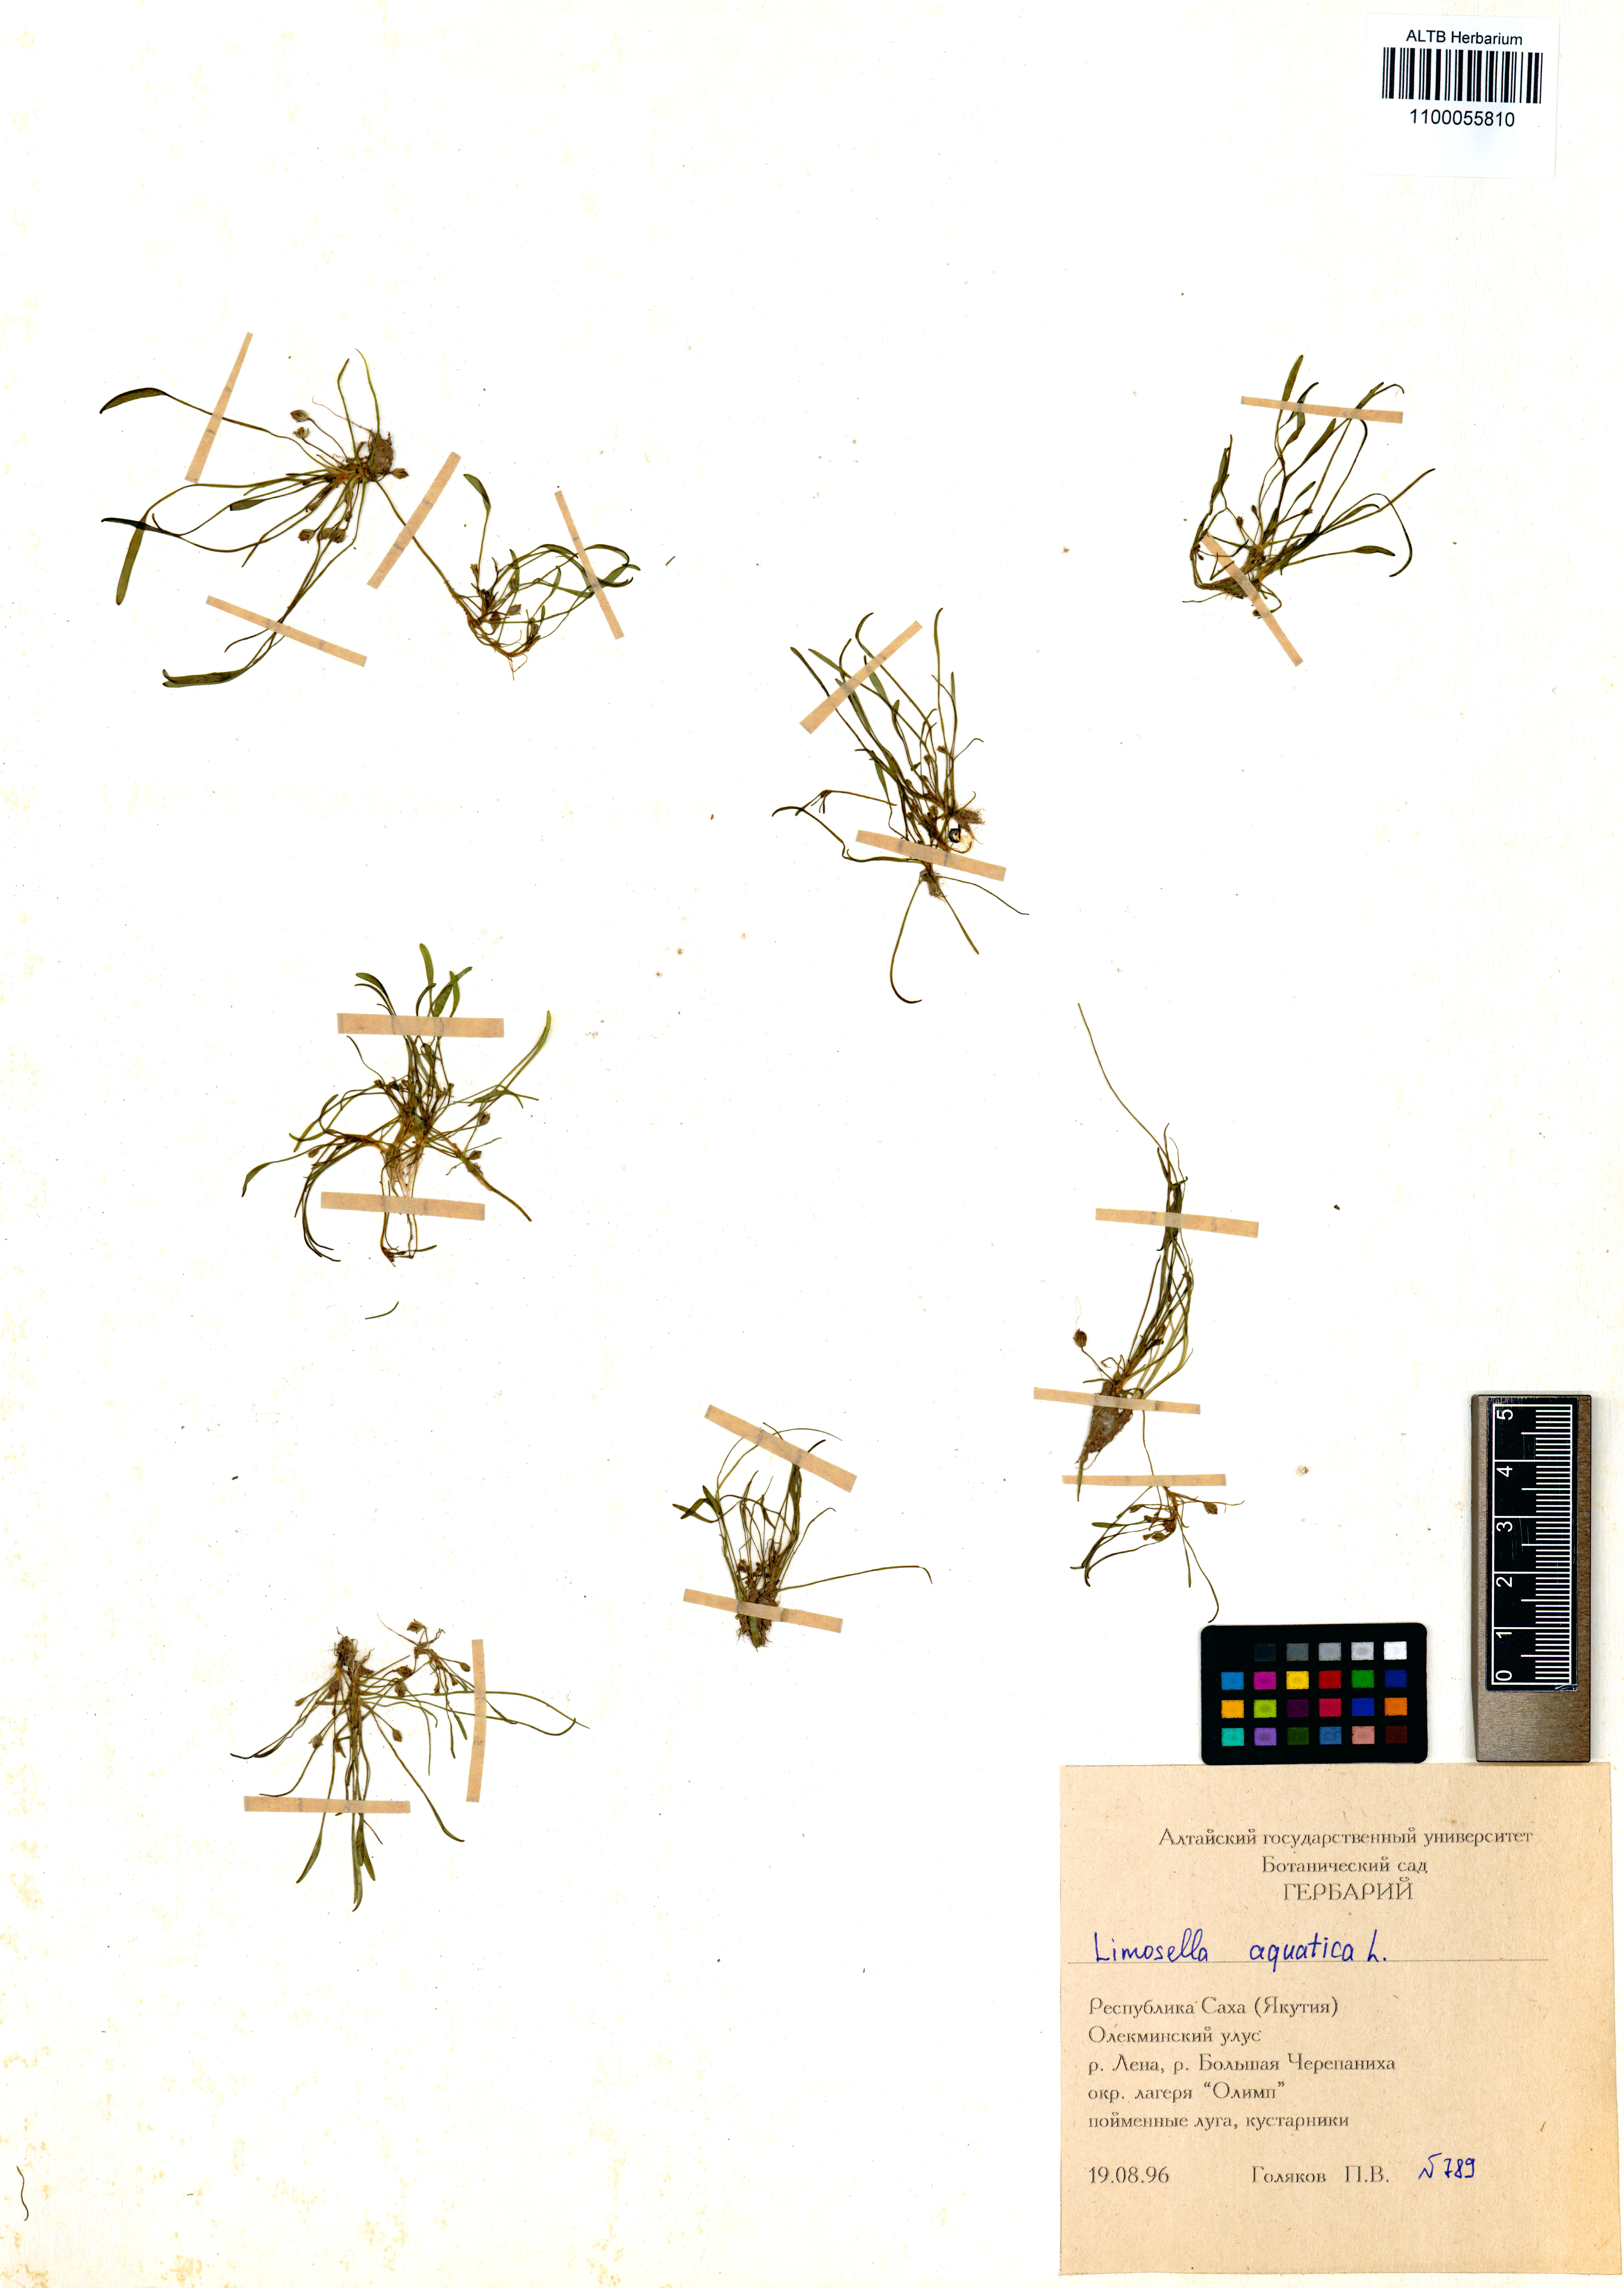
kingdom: Plantae
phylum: Tracheophyta
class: Magnoliopsida
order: Lamiales
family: Scrophulariaceae
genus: Limosella
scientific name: Limosella aquatica
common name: Mudwort
